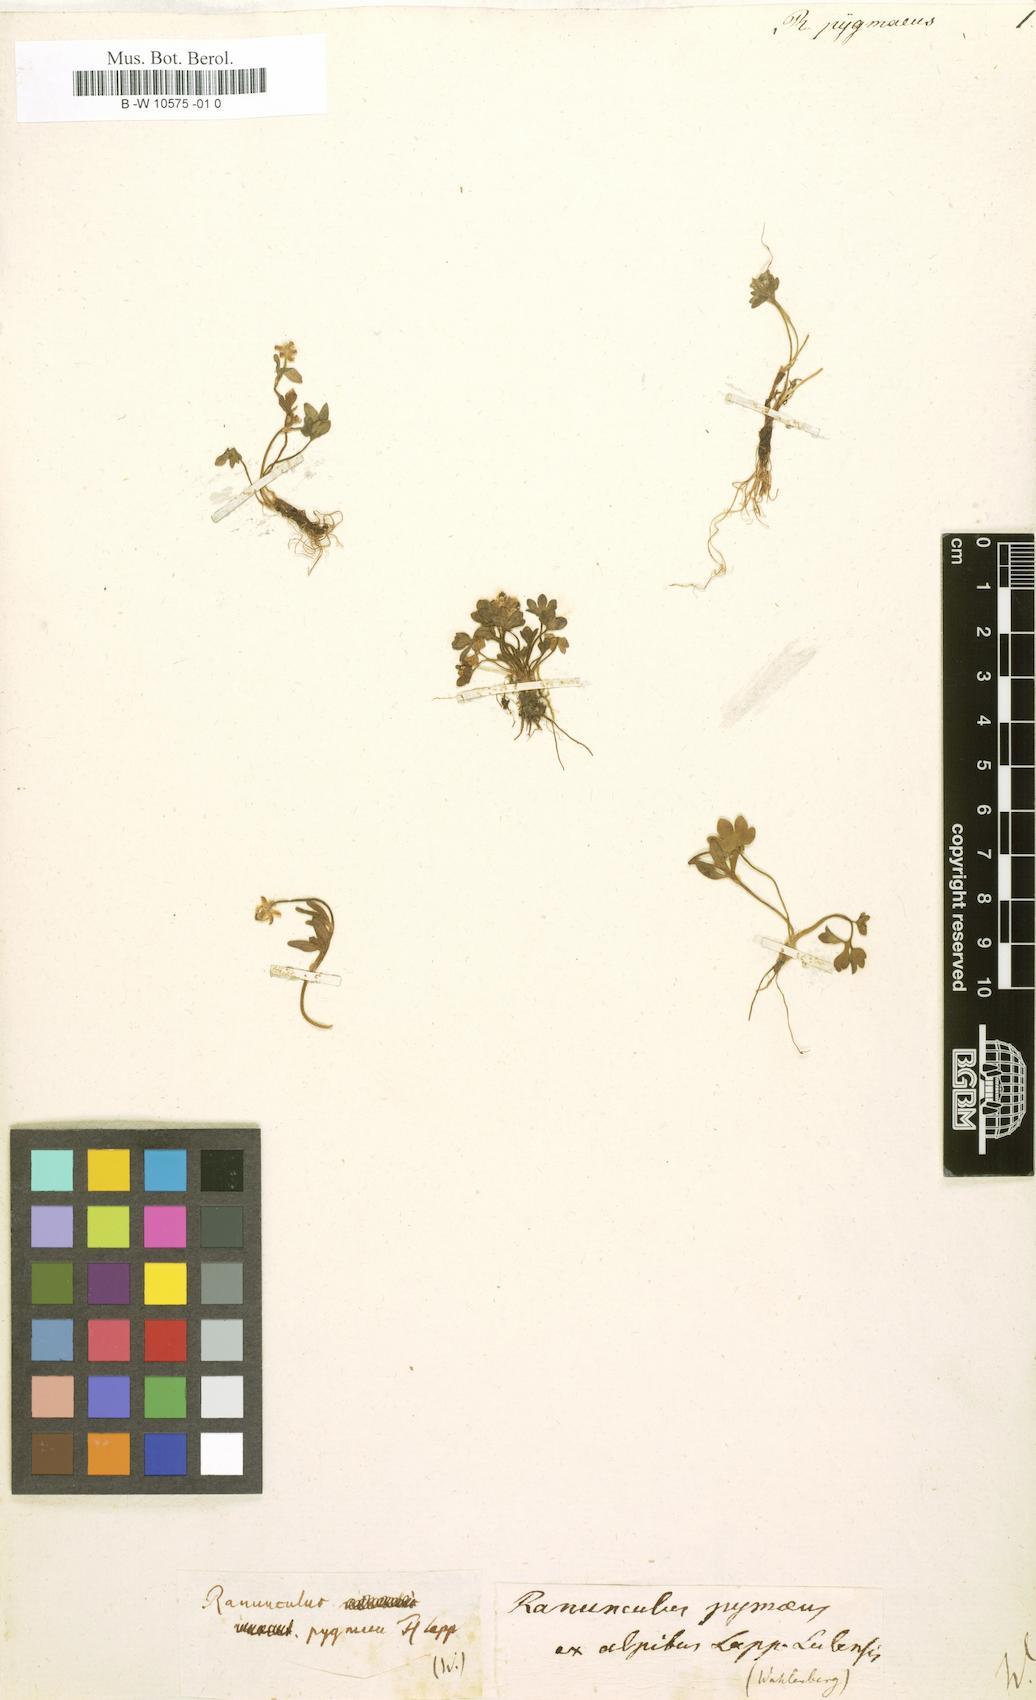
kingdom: Plantae
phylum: Tracheophyta
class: Magnoliopsida
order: Ranunculales
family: Ranunculaceae
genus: Ranunculus
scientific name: Ranunculus pygmaeus
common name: Dwarf buttercup
